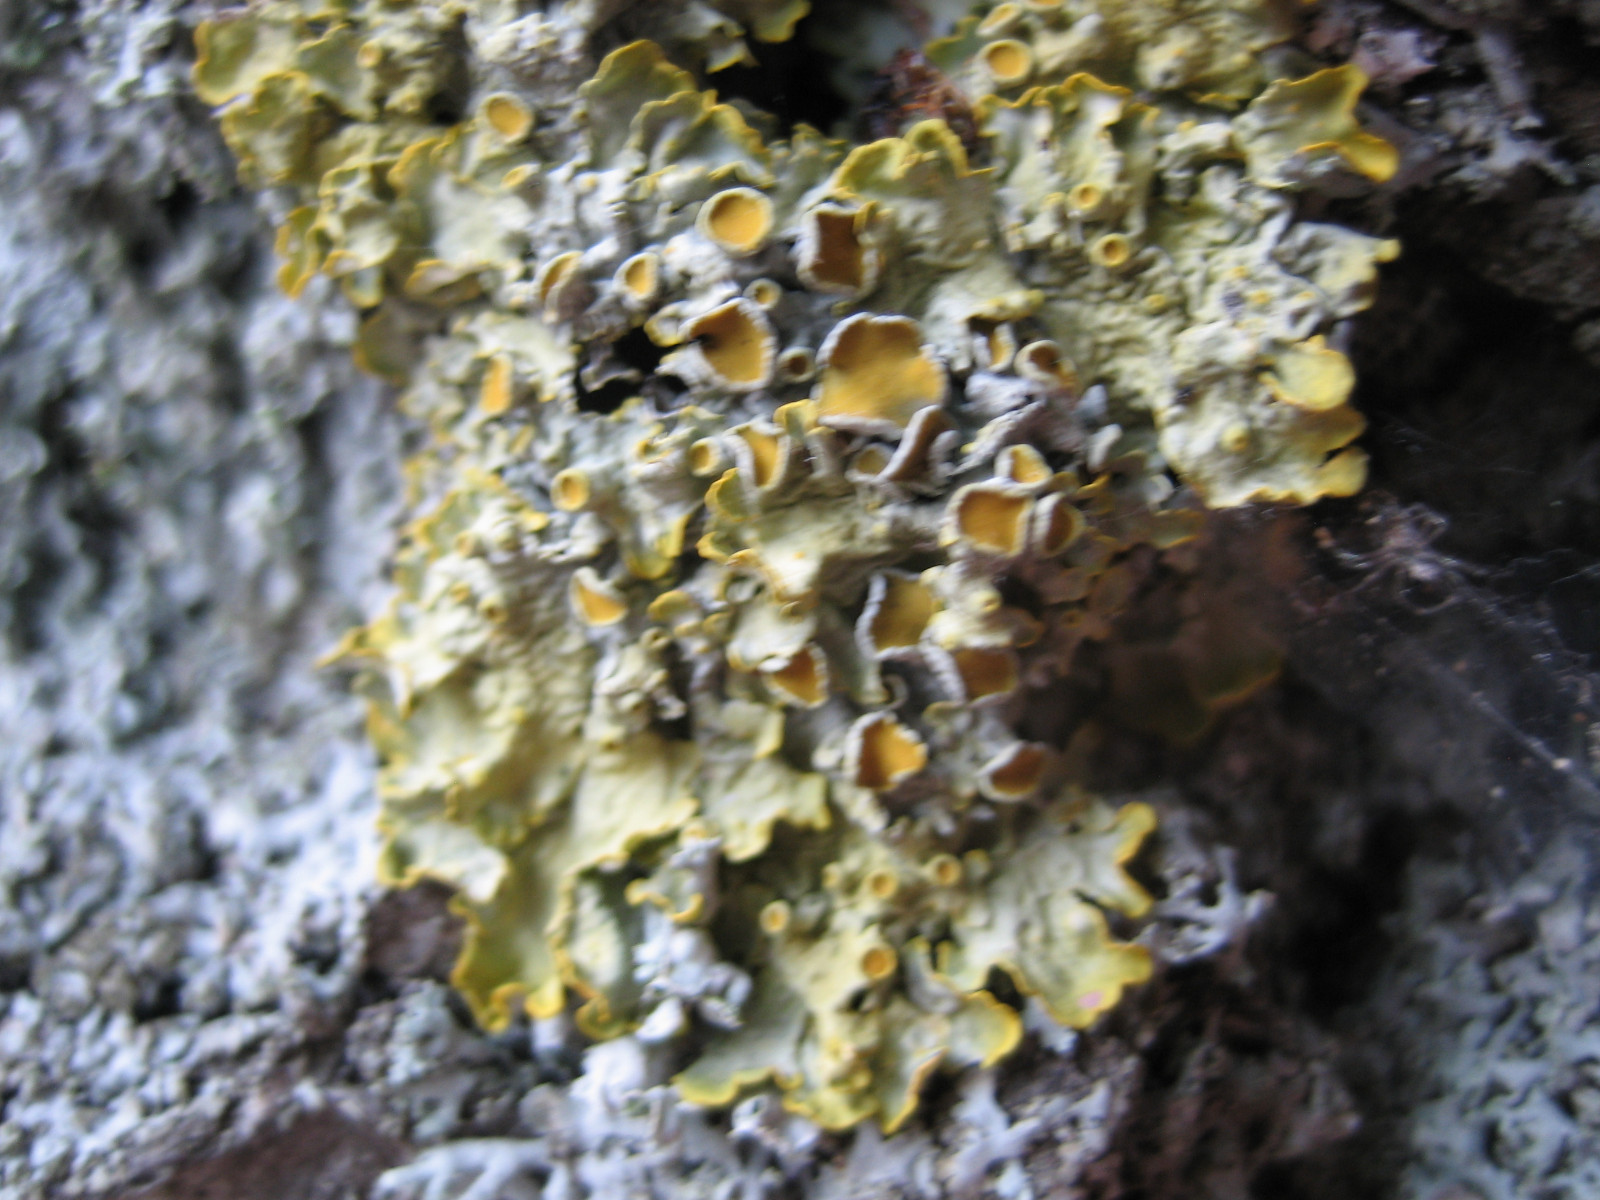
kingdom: Fungi
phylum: Ascomycota
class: Lecanoromycetes
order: Teloschistales
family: Teloschistaceae
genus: Xanthoria
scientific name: Xanthoria parietina
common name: almindelig væggelav
